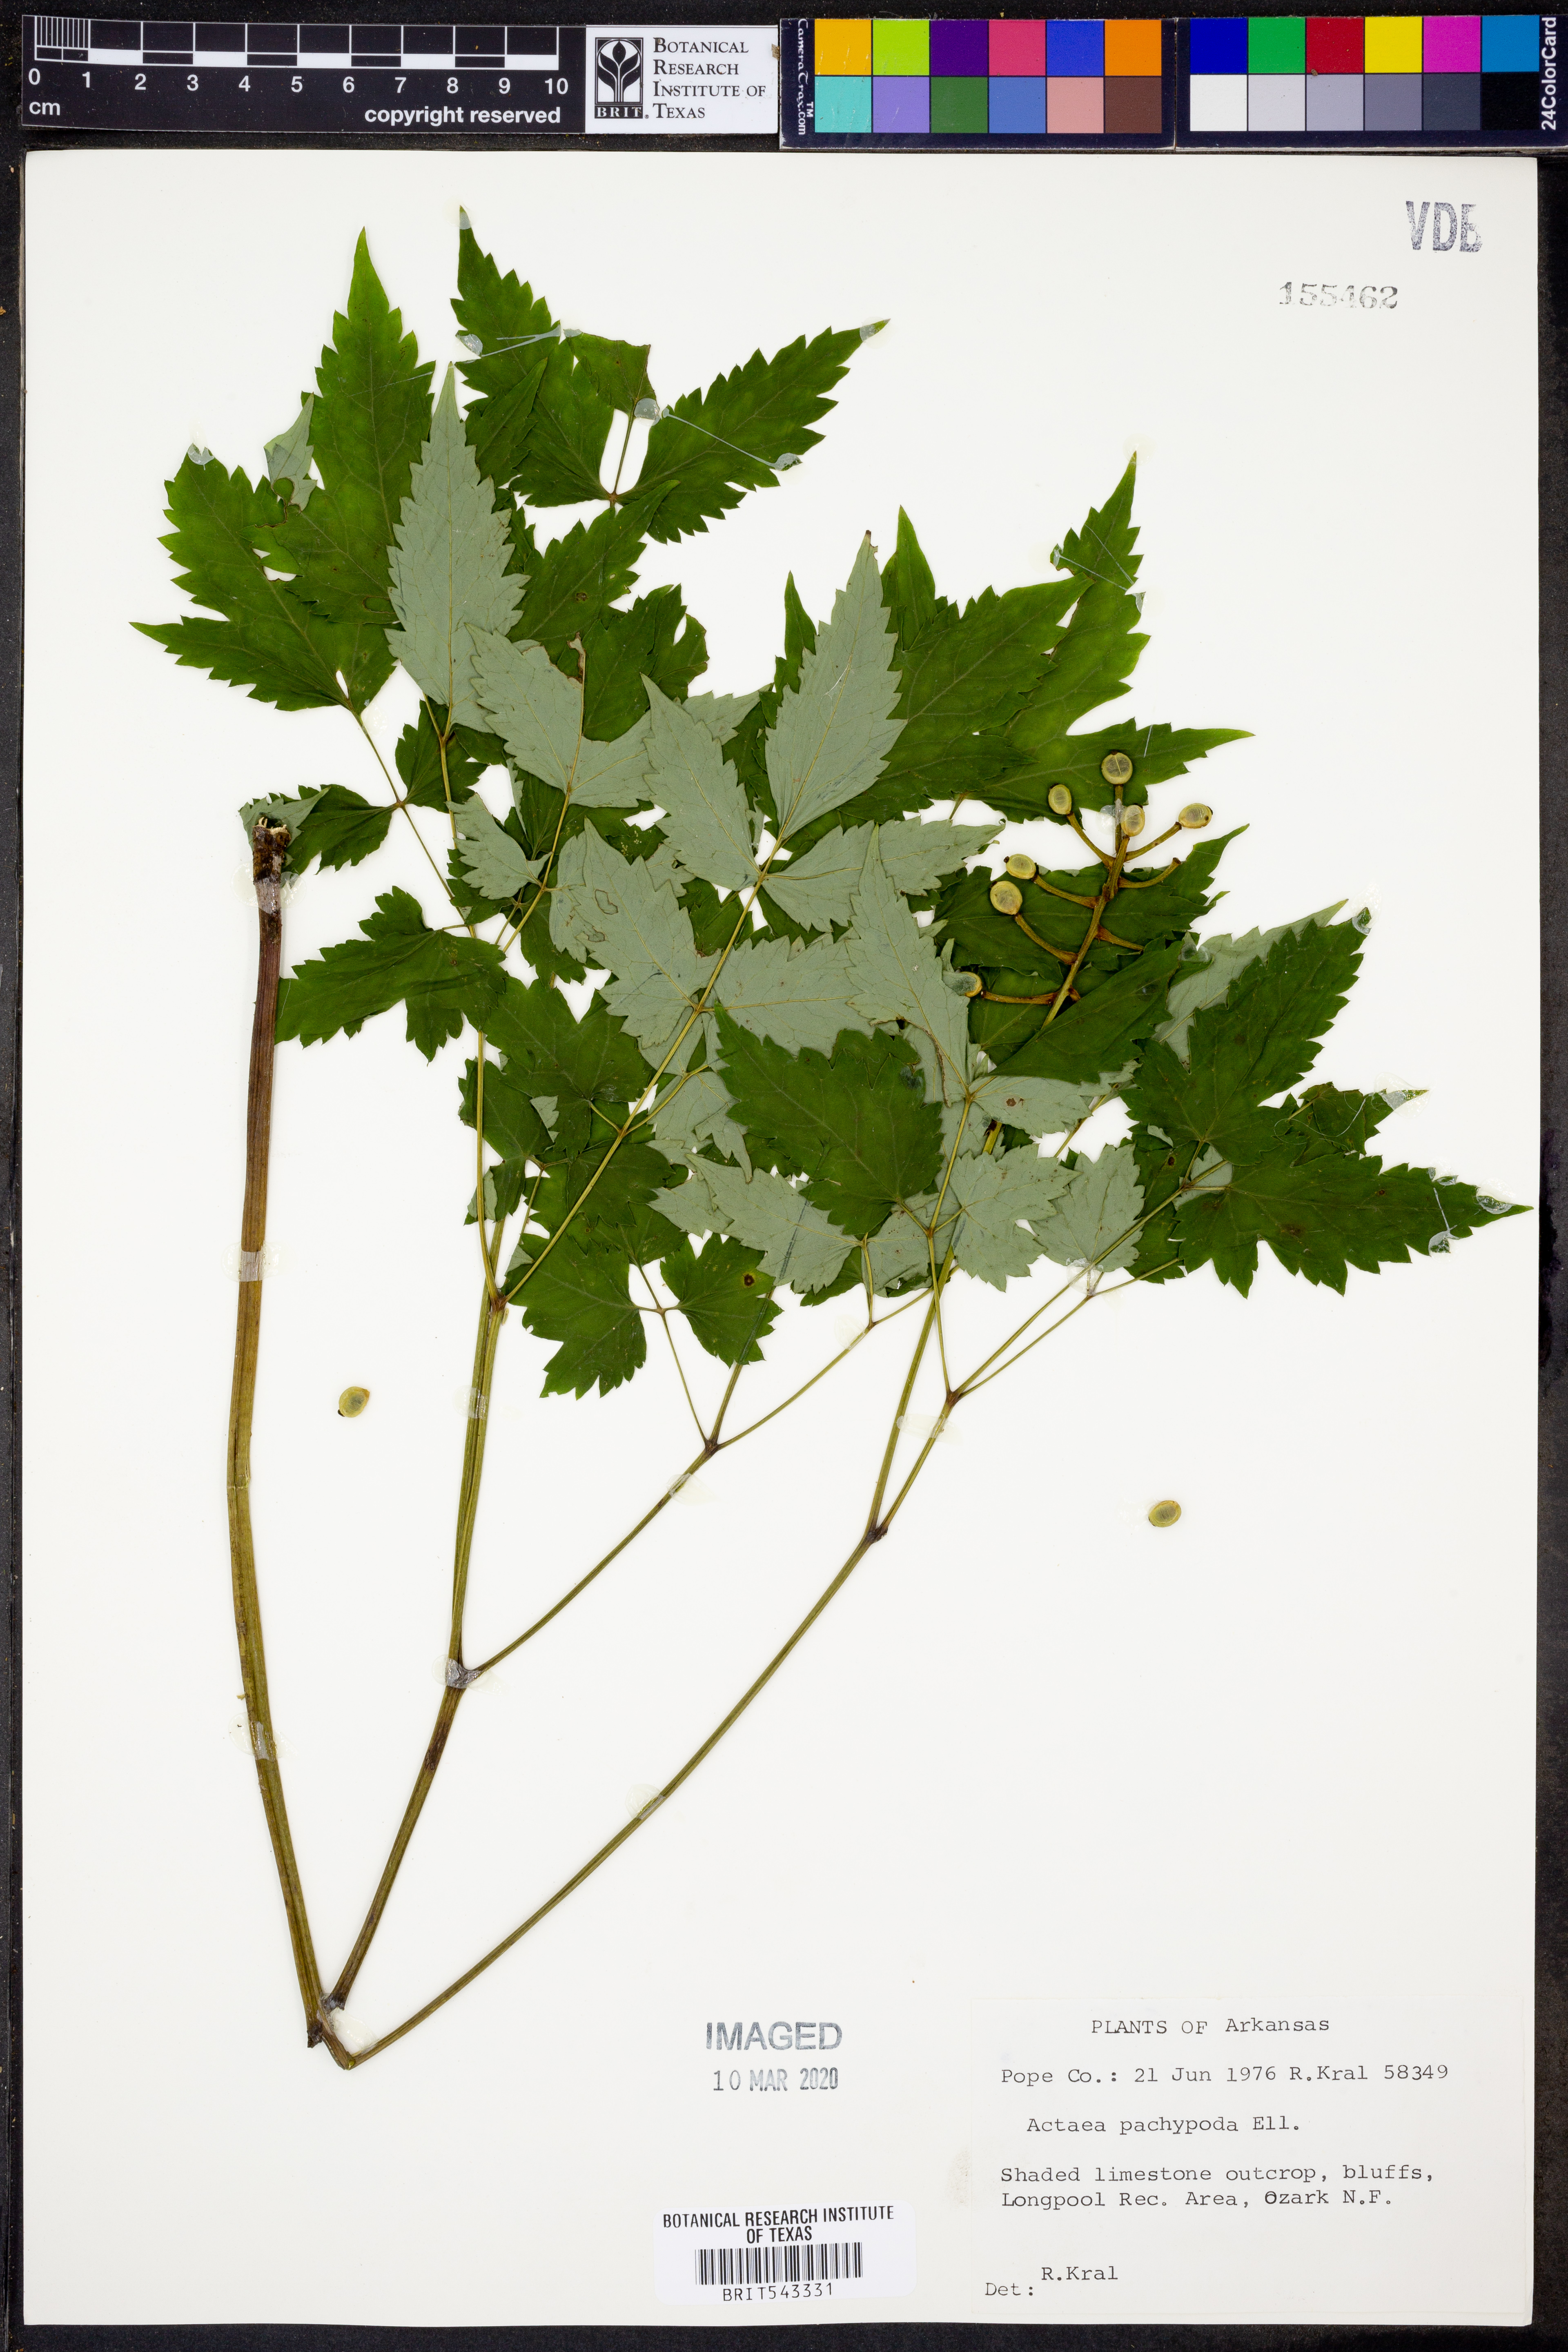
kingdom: Plantae
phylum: Tracheophyta
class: Magnoliopsida
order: Ranunculales
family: Ranunculaceae
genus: Actaea
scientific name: Actaea pachypoda
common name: Doll's-eyes
